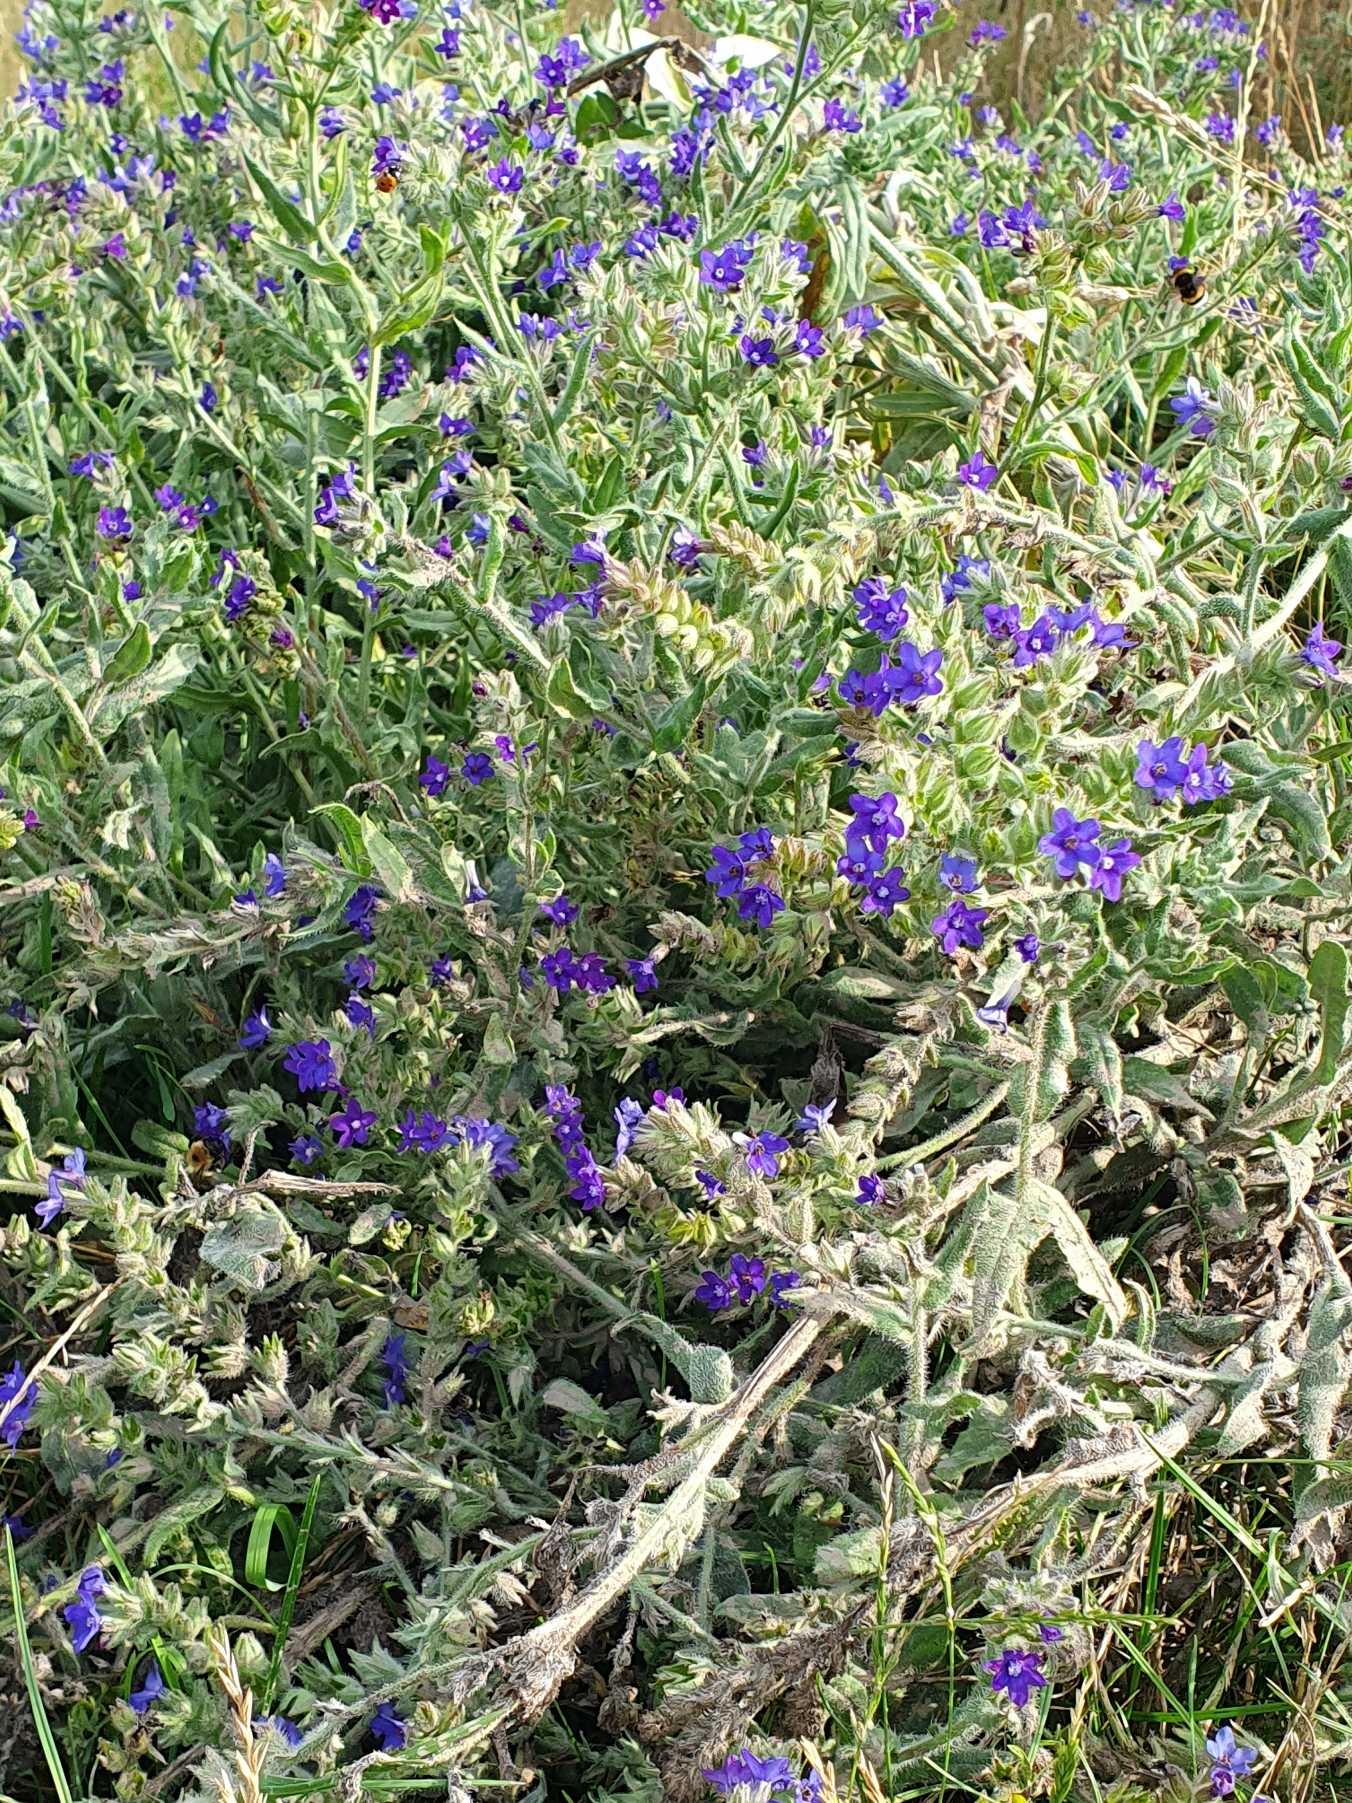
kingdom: Plantae
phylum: Tracheophyta
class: Magnoliopsida
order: Boraginales
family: Boraginaceae
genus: Anchusa
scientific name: Anchusa officinalis
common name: Læge-oksetunge
